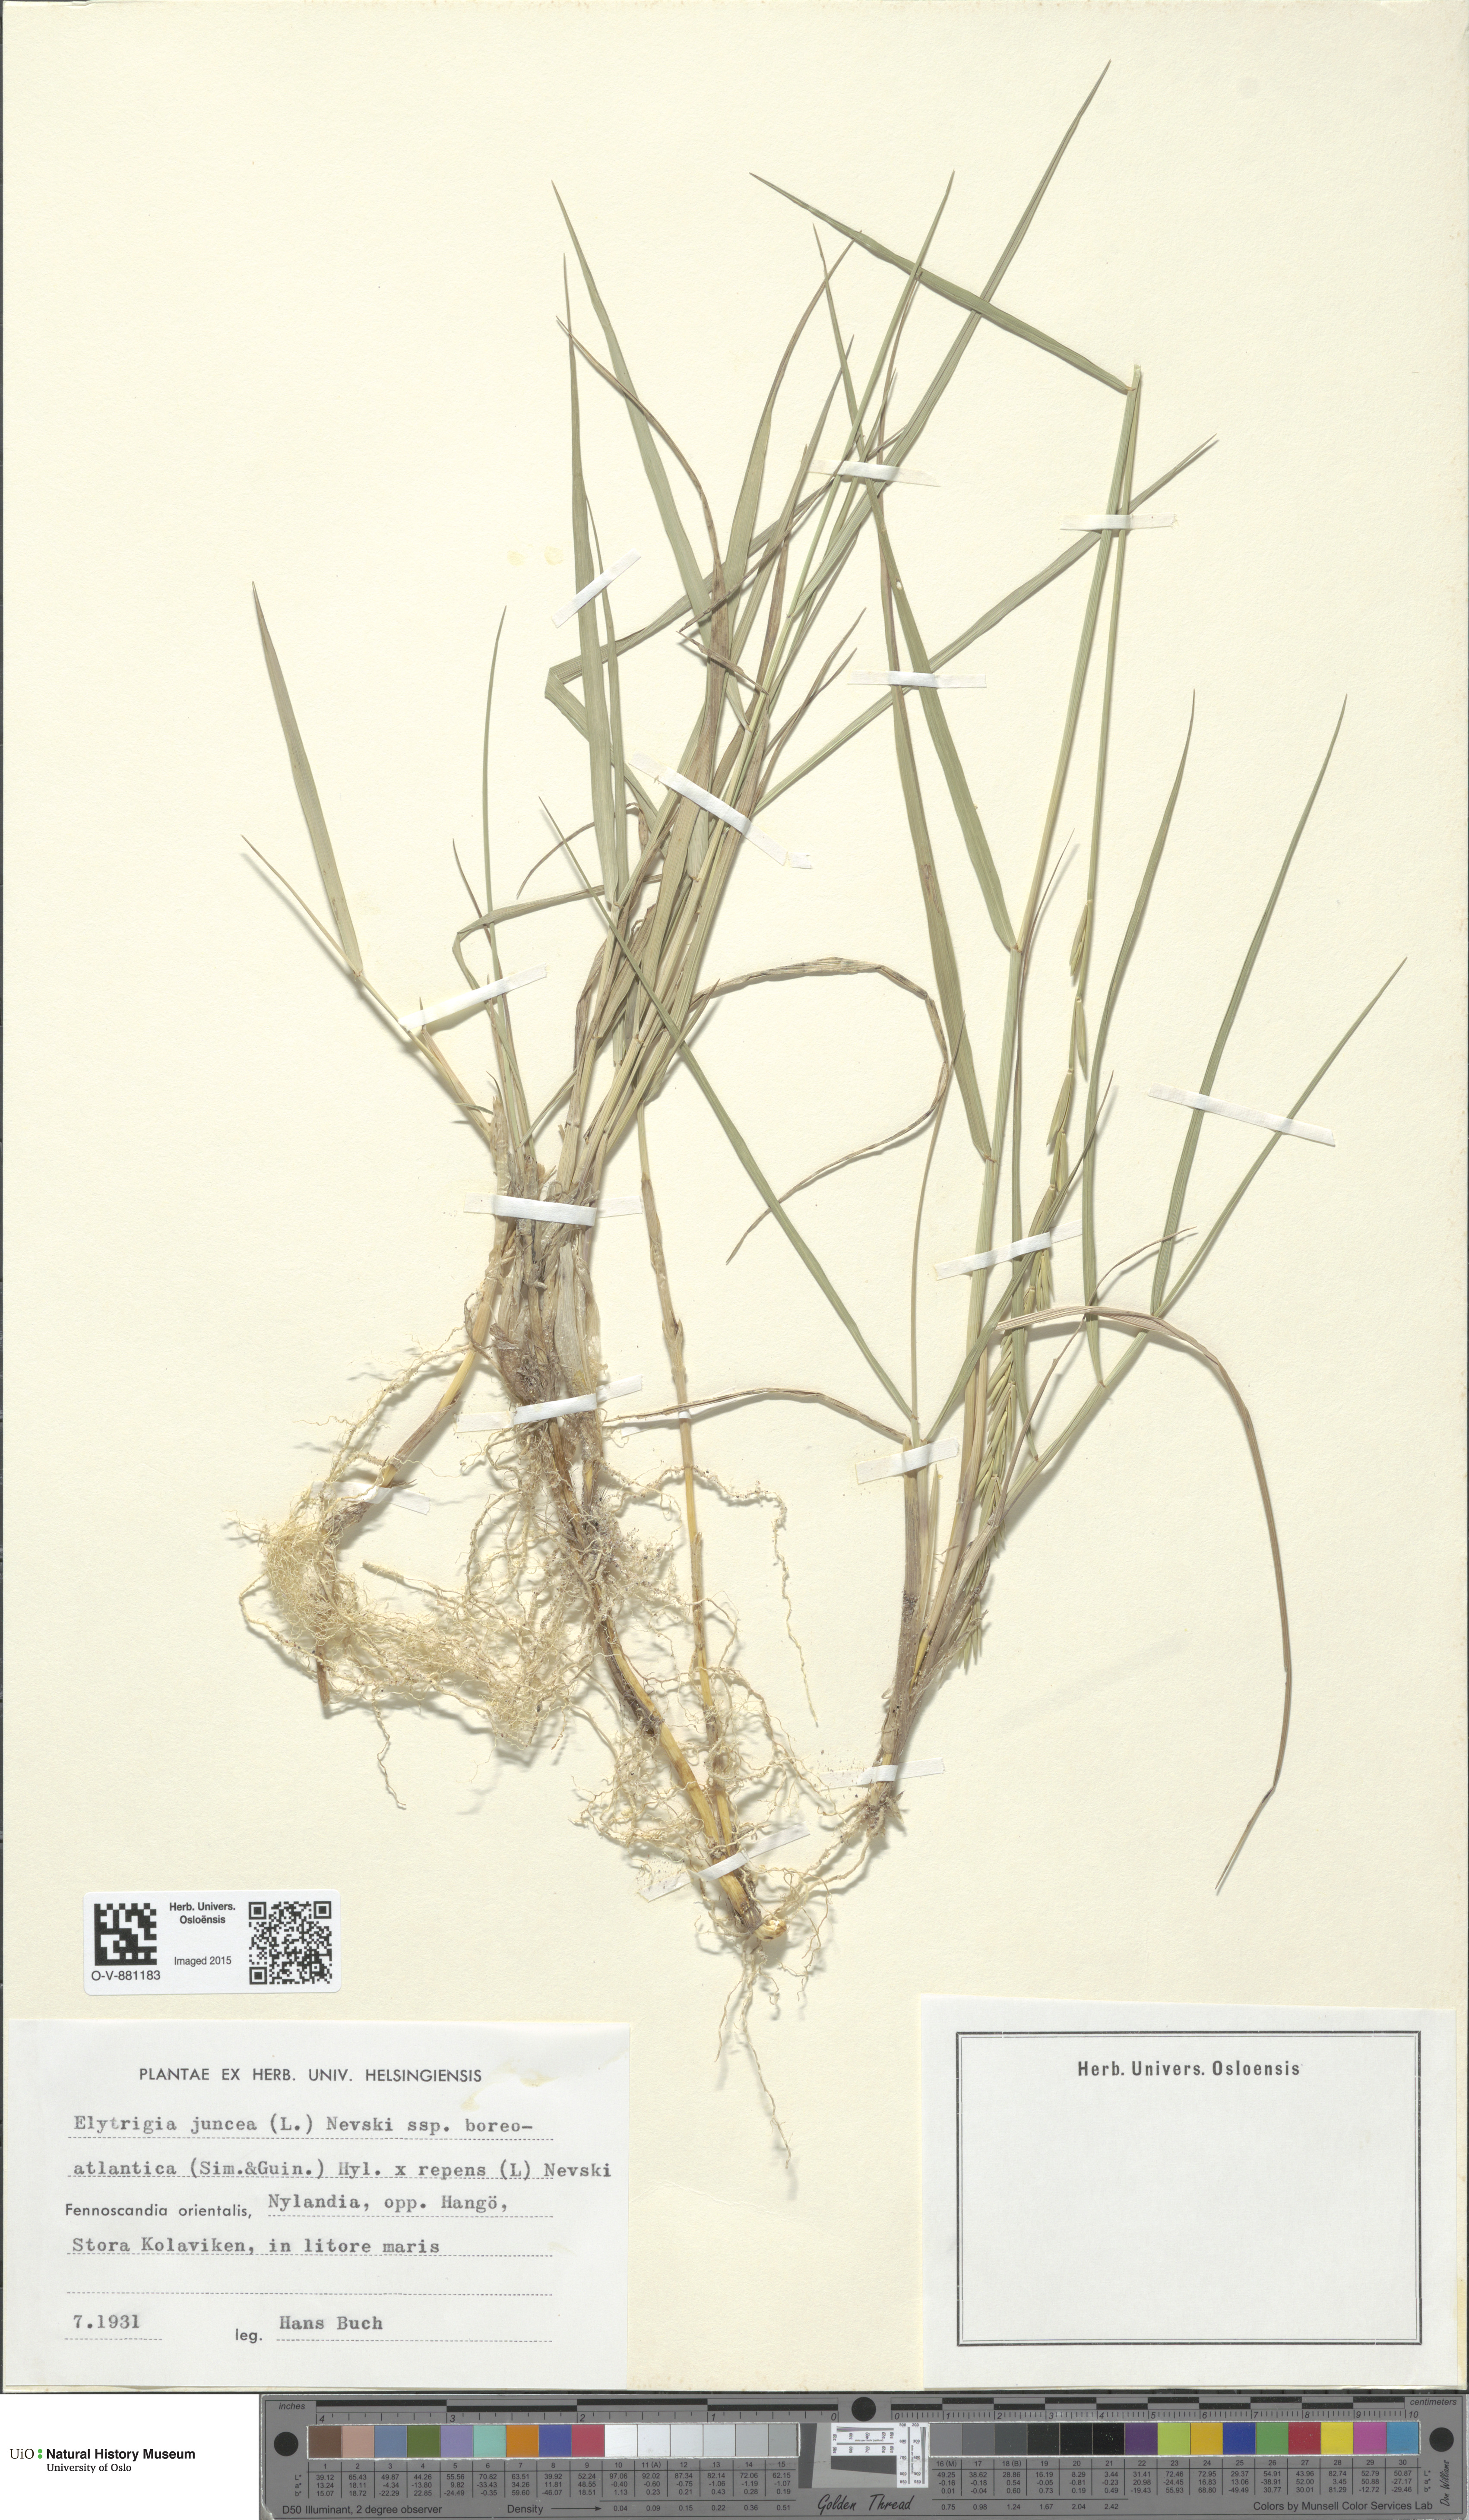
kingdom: Plantae
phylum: Tracheophyta
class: Liliopsida
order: Poales
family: Poaceae
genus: Elymus
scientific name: Elymus
